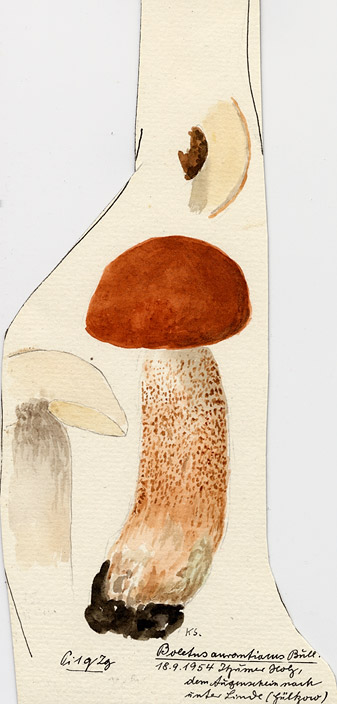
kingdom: Plantae
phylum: Tracheophyta
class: Magnoliopsida
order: Malvales
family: Malvaceae
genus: Tilia
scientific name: Tilia
